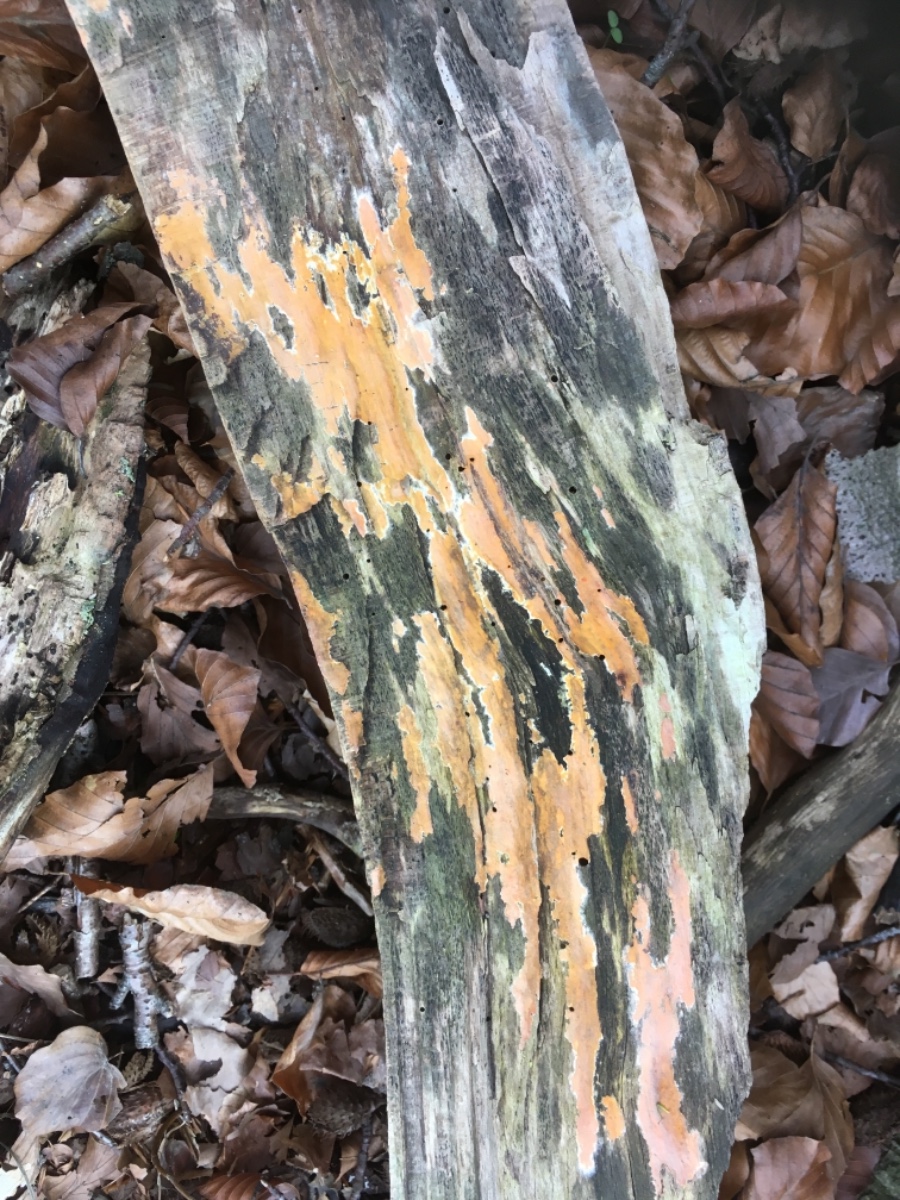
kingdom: Fungi
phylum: Basidiomycota
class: Agaricomycetes
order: Russulales
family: Peniophoraceae
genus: Peniophora
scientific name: Peniophora incarnata
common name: laksefarvet voksskind
